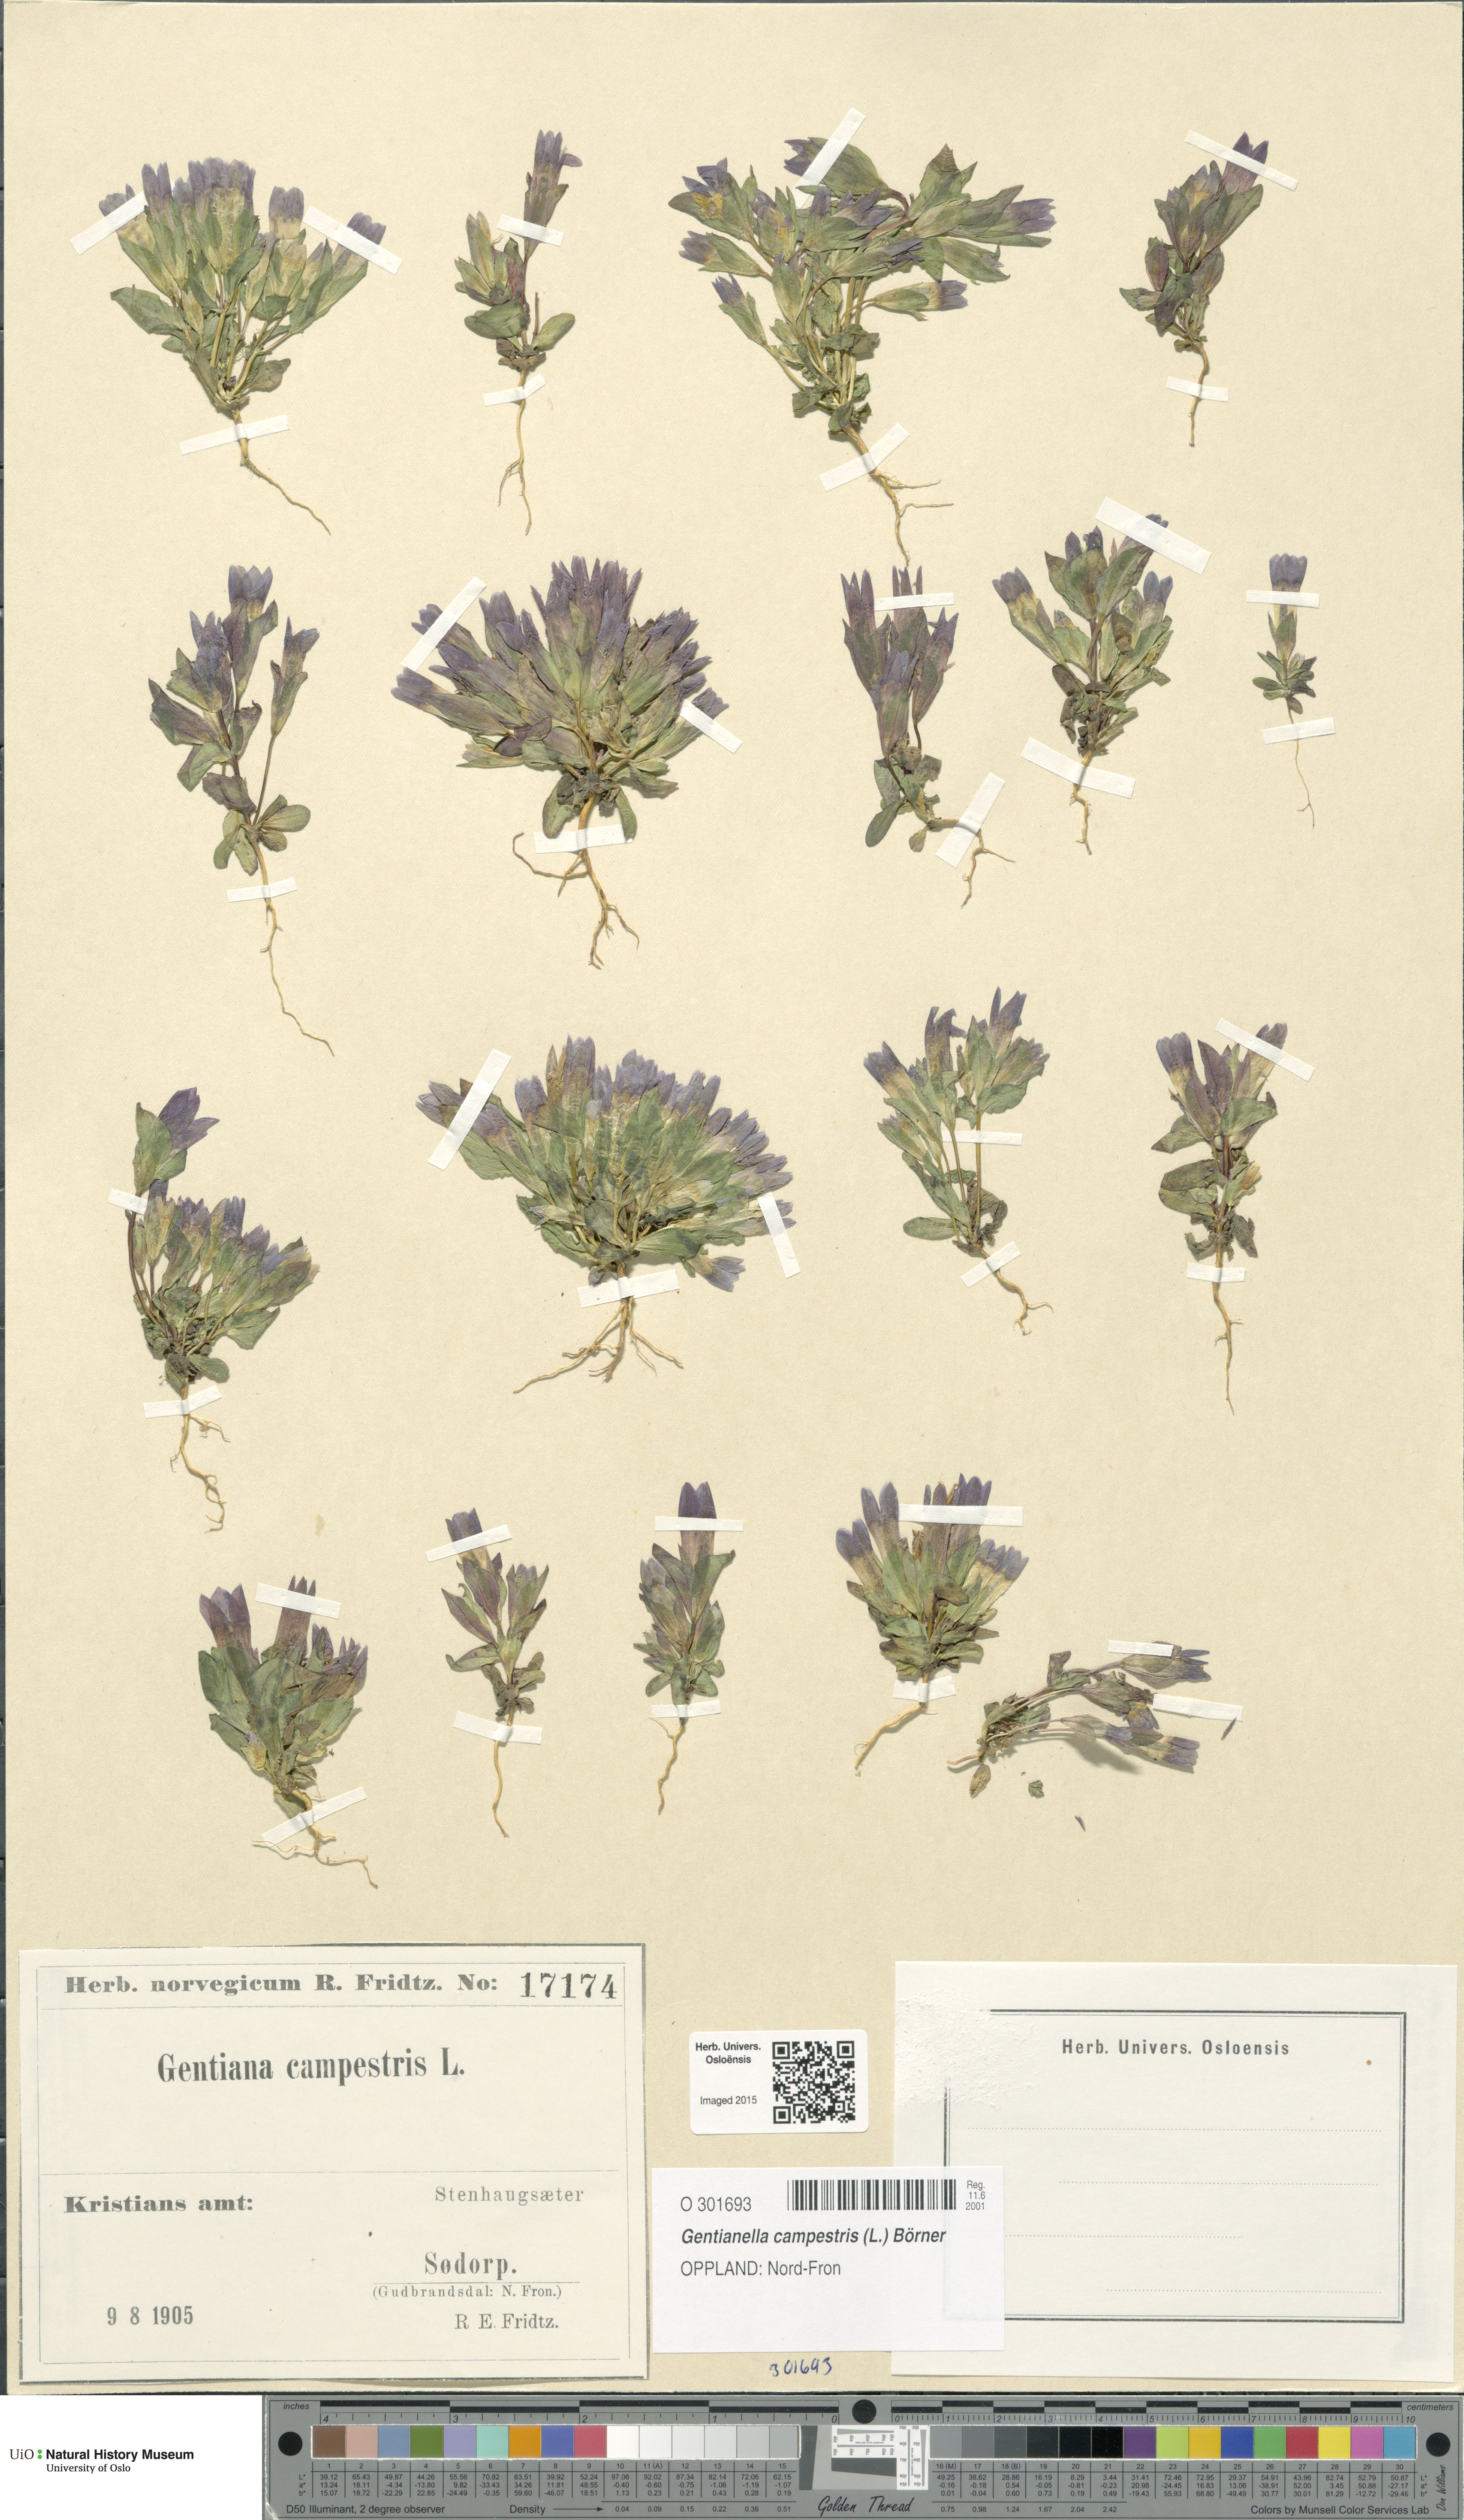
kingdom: Plantae
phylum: Tracheophyta
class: Magnoliopsida
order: Gentianales
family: Gentianaceae
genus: Gentianella
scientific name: Gentianella campestris
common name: Field gentian
